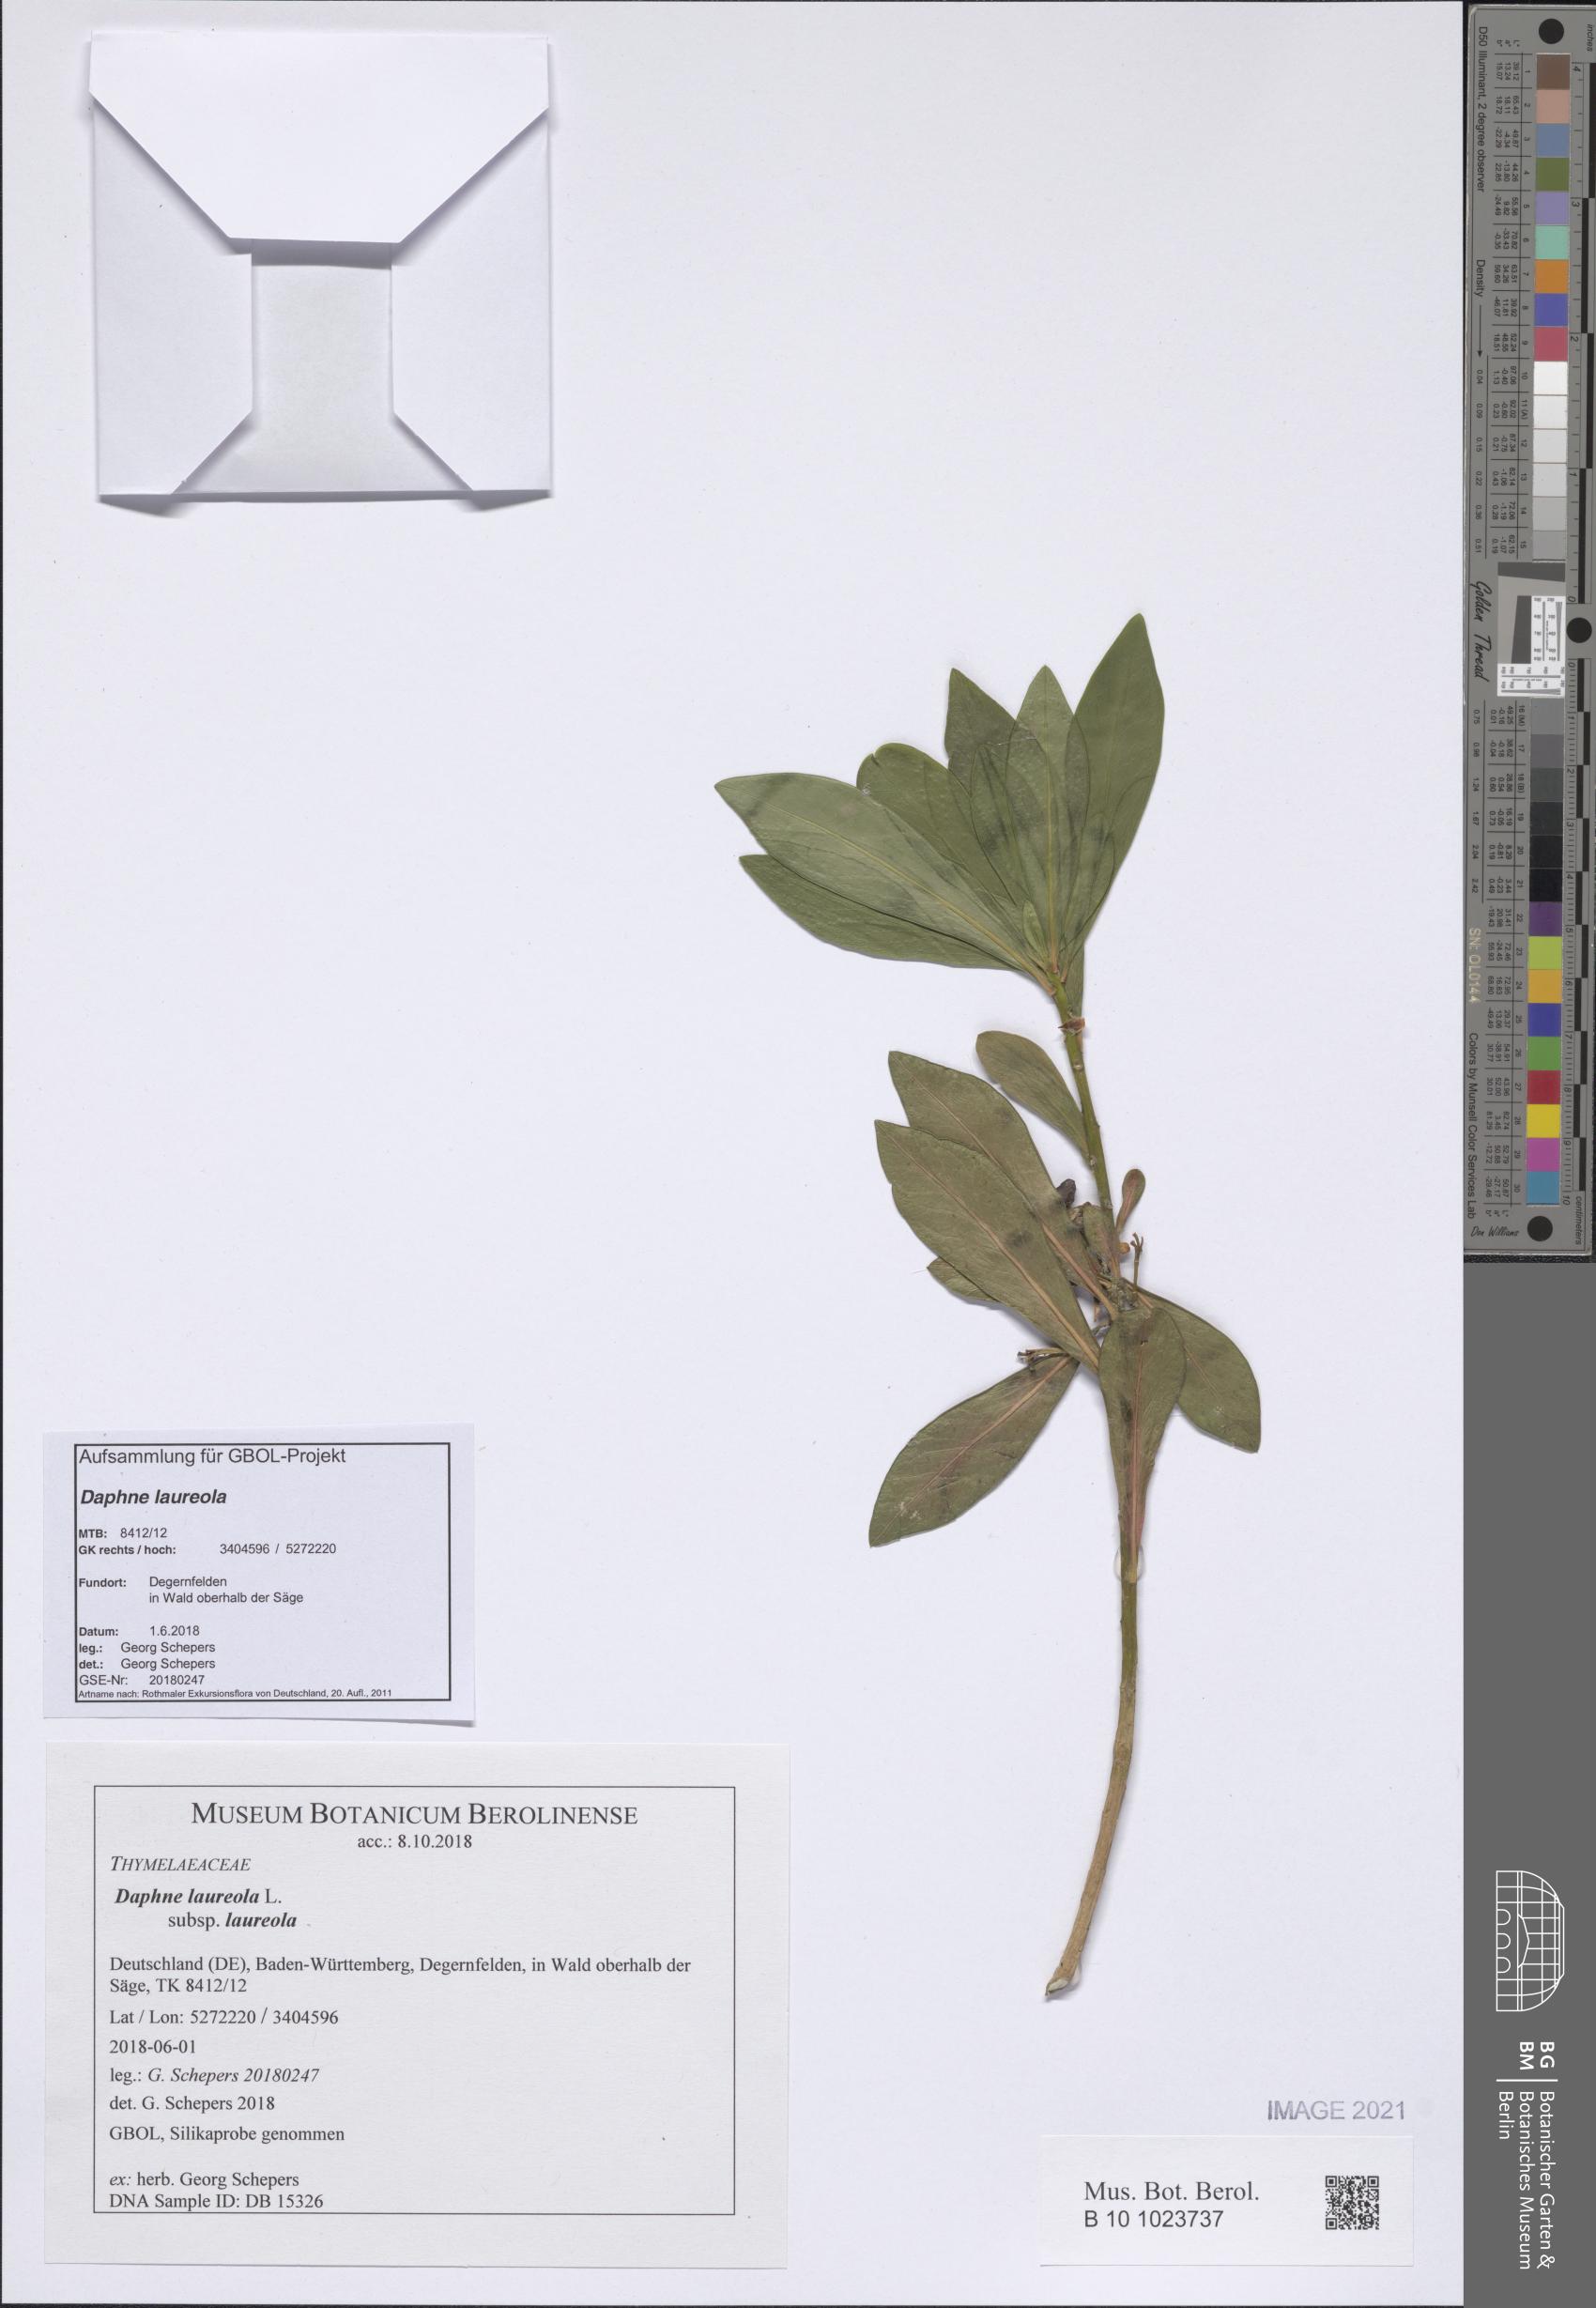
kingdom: Plantae
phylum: Tracheophyta
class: Magnoliopsida
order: Malvales
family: Thymelaeaceae
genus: Daphne
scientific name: Daphne laureola
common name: Spurge-laurel
